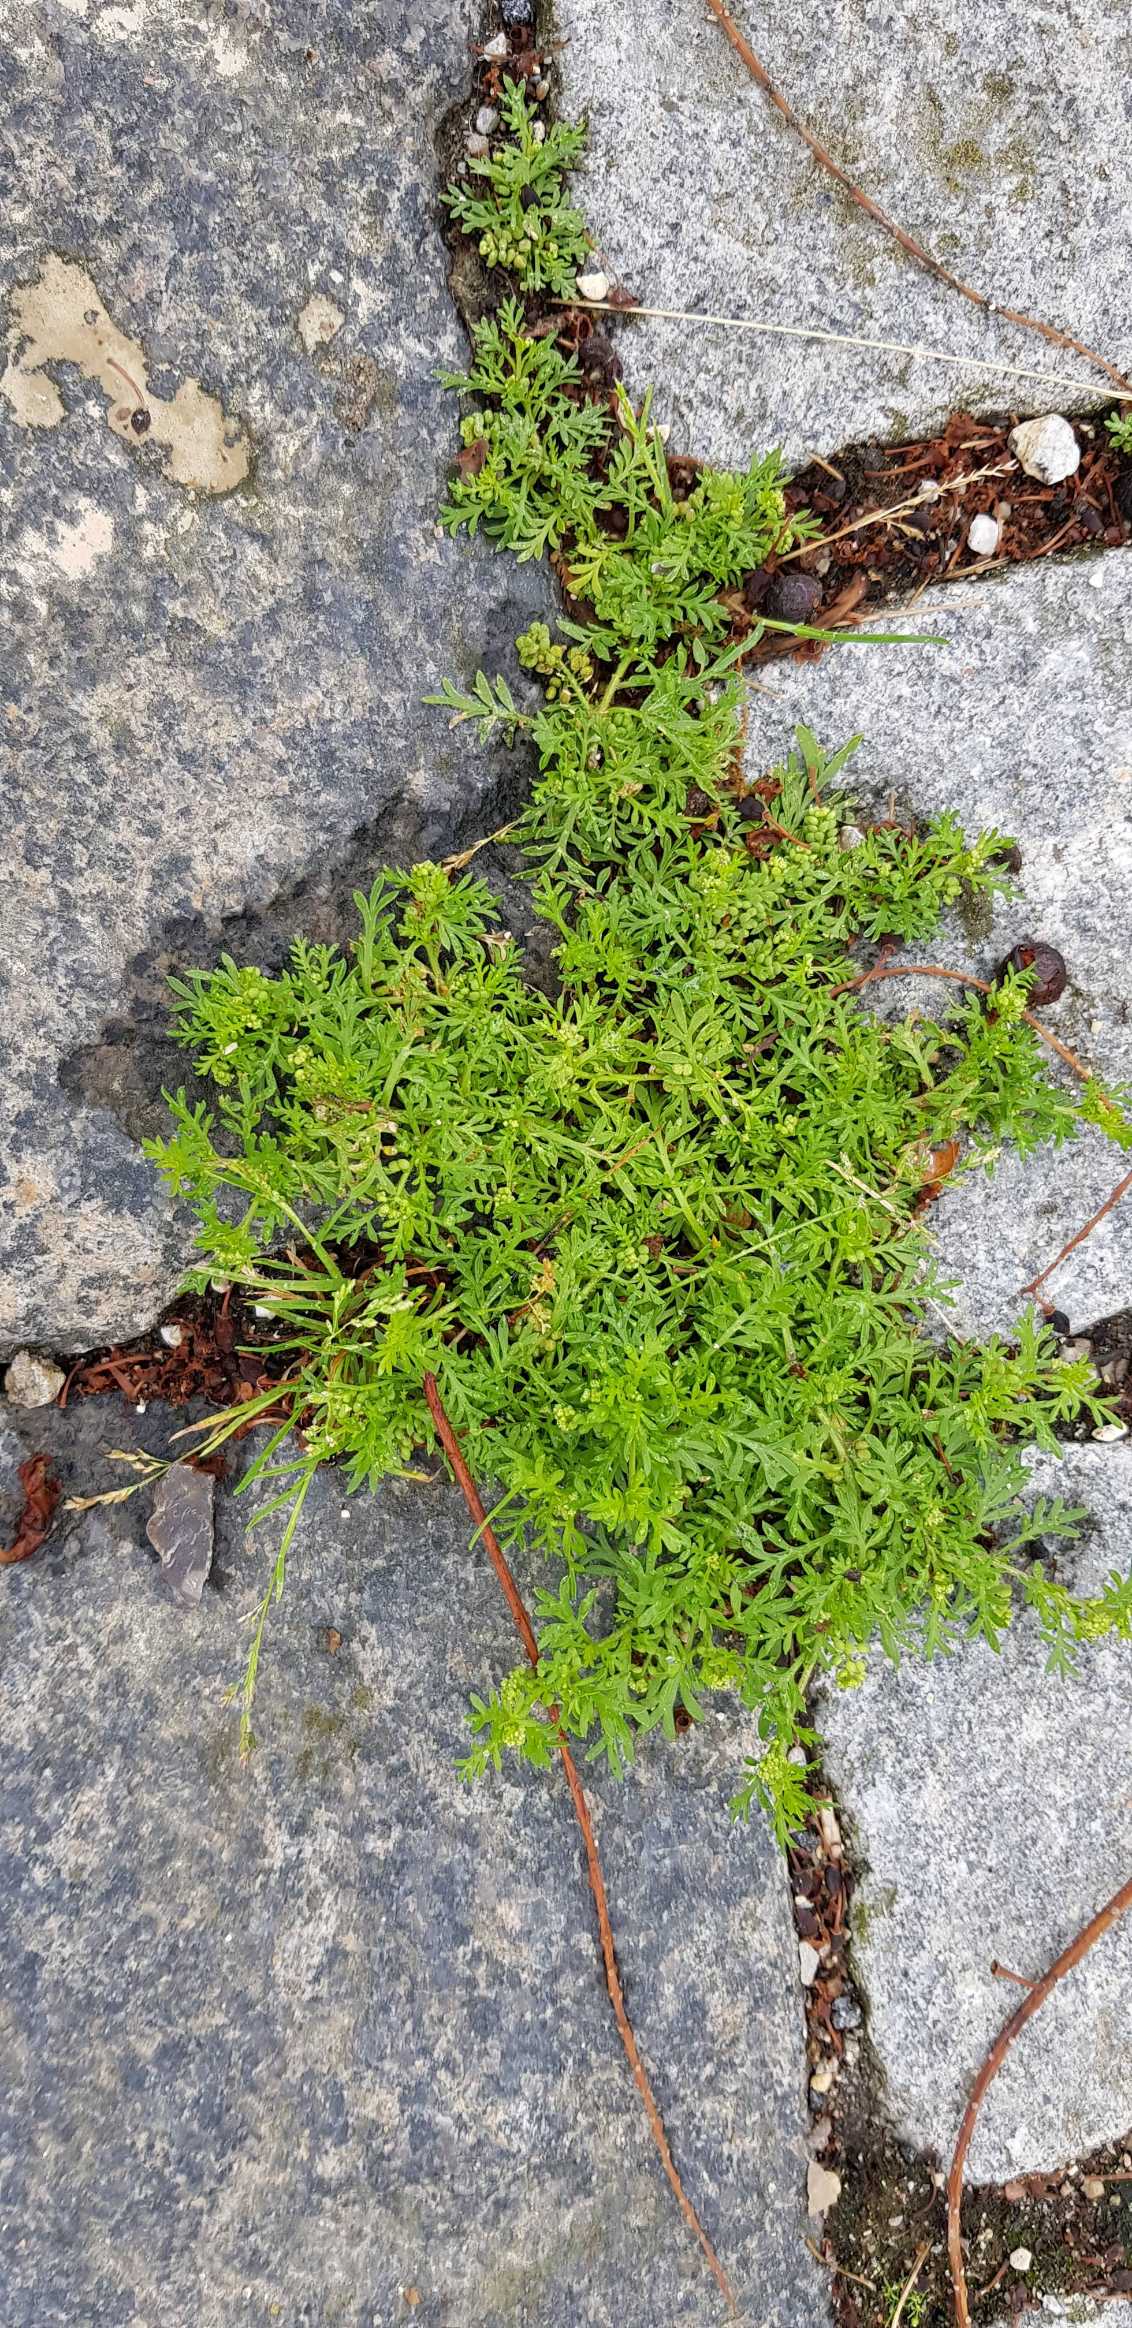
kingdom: Plantae
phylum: Tracheophyta
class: Magnoliopsida
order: Brassicales
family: Brassicaceae
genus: Lepidium
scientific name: Lepidium didymum
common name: Liden ravnefod
